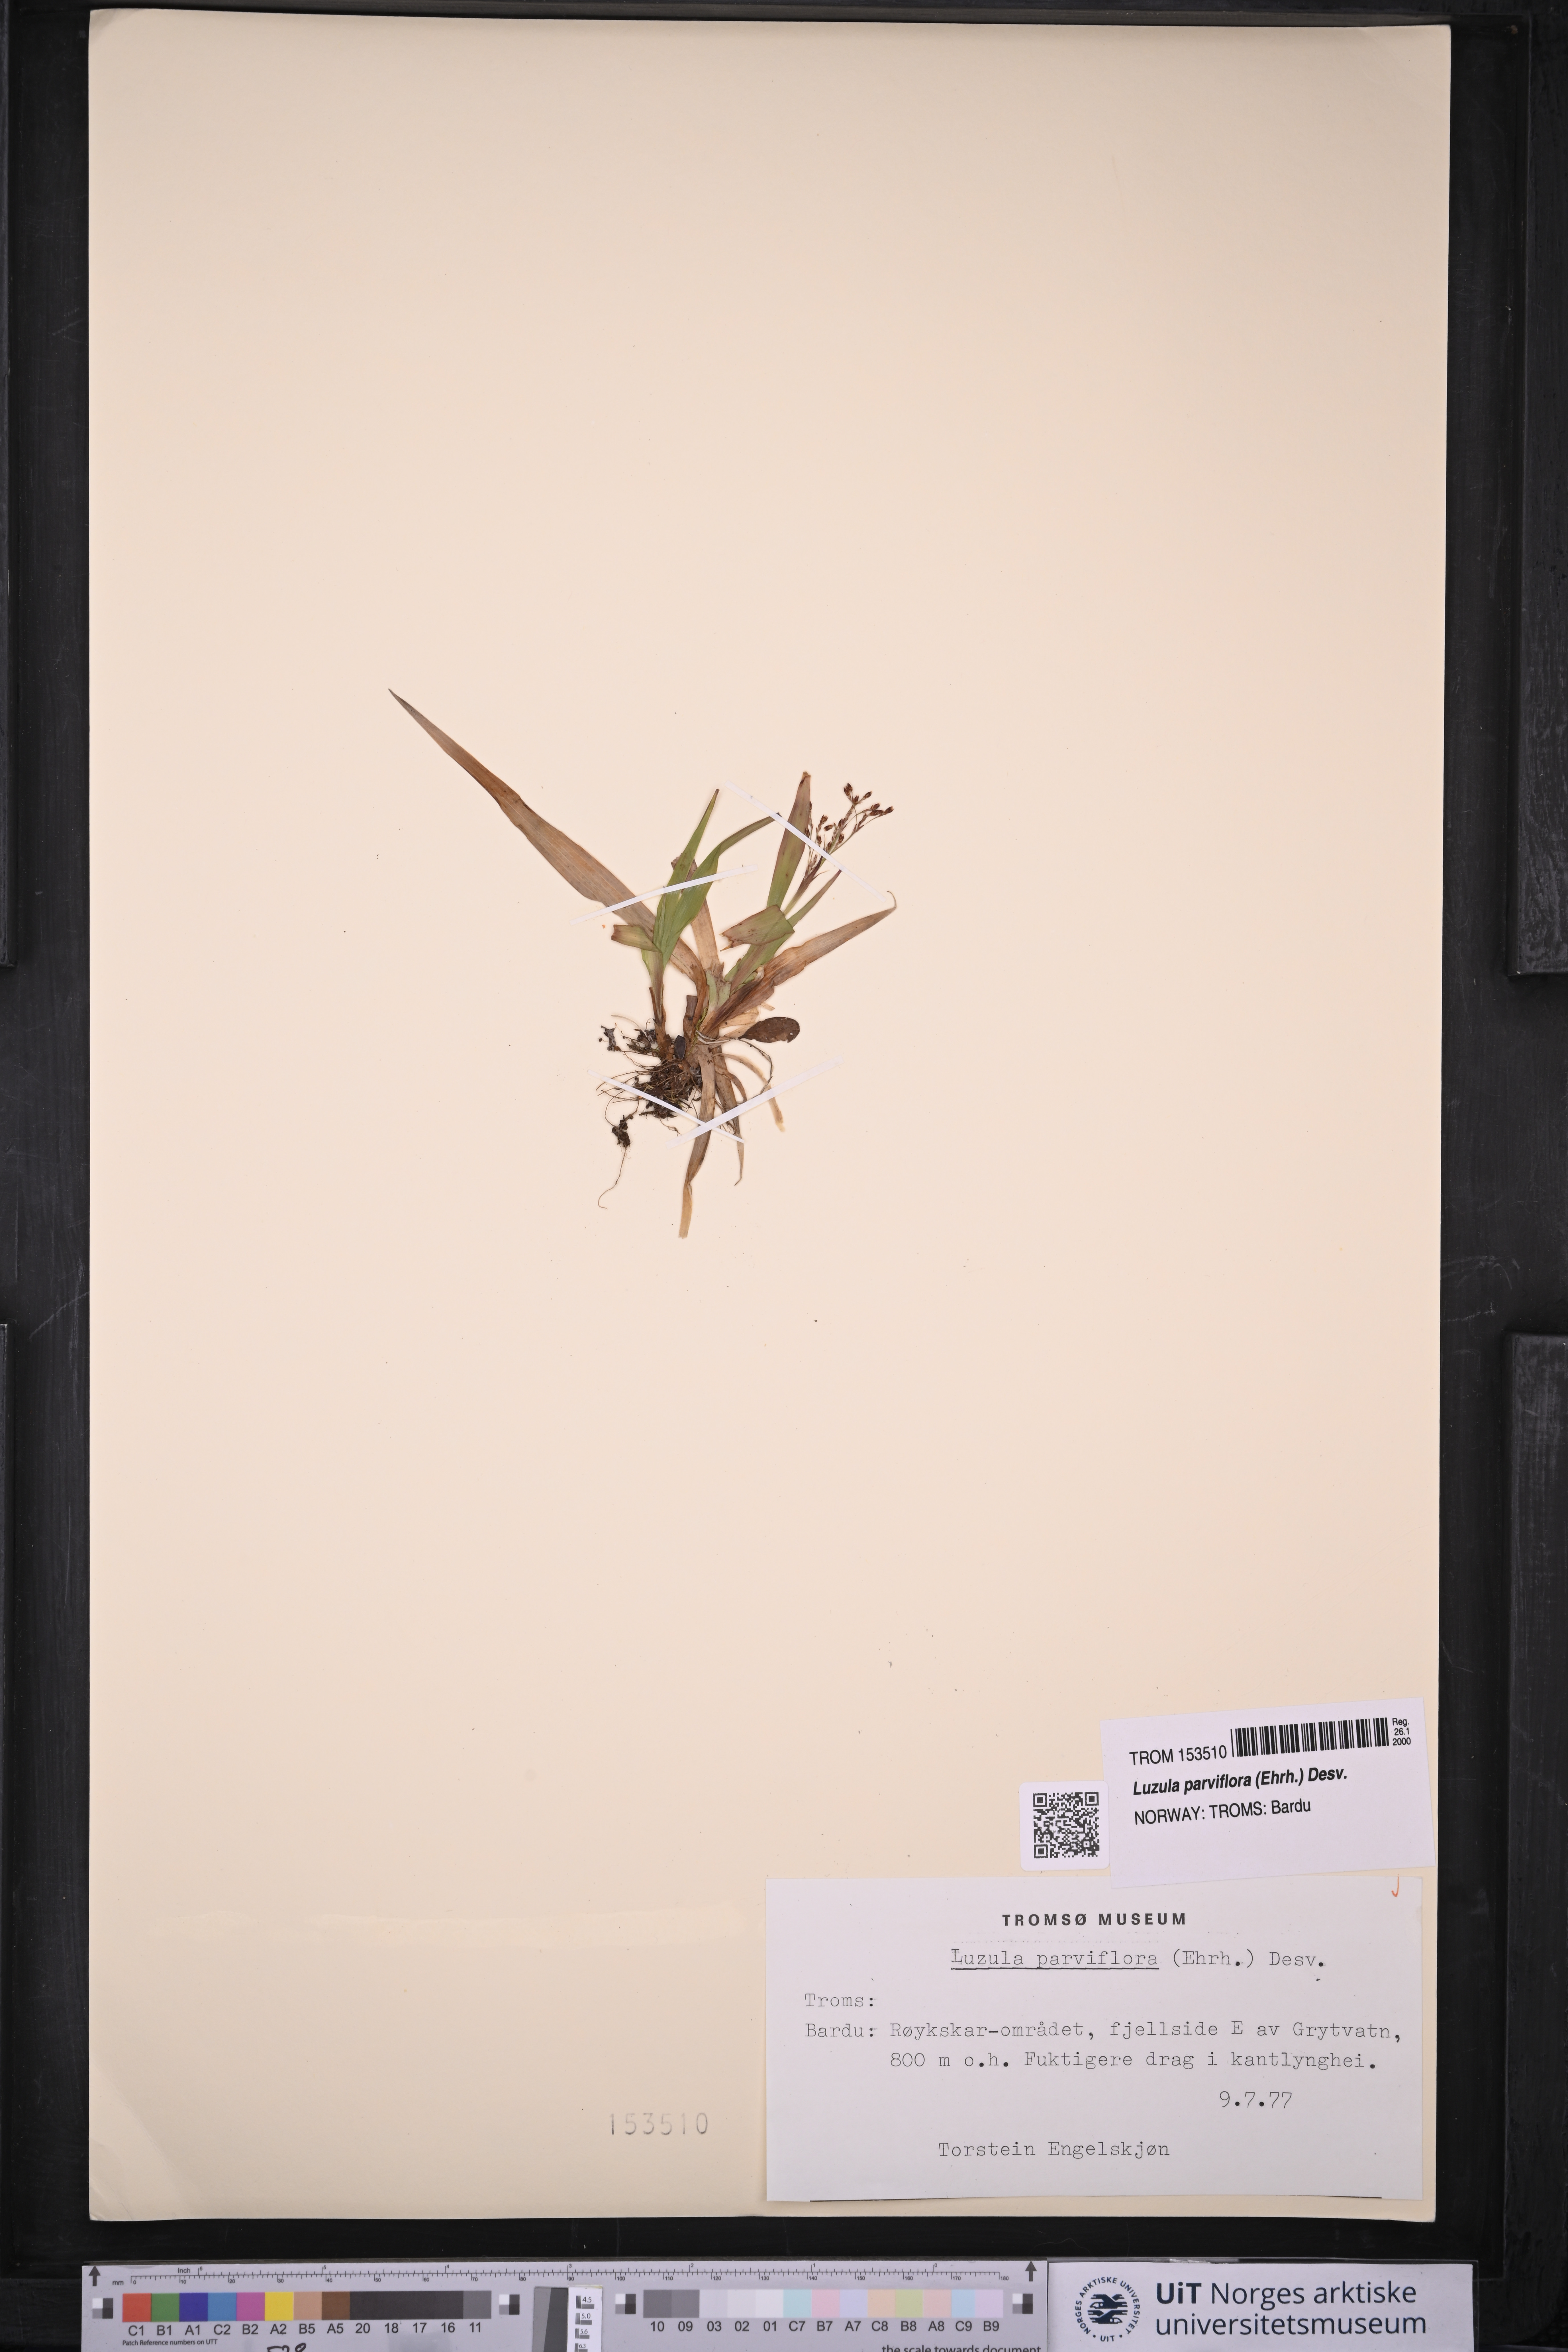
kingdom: Plantae
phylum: Tracheophyta
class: Liliopsida
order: Poales
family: Juncaceae
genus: Luzula
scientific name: Luzula parviflora
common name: Millet woodrush
